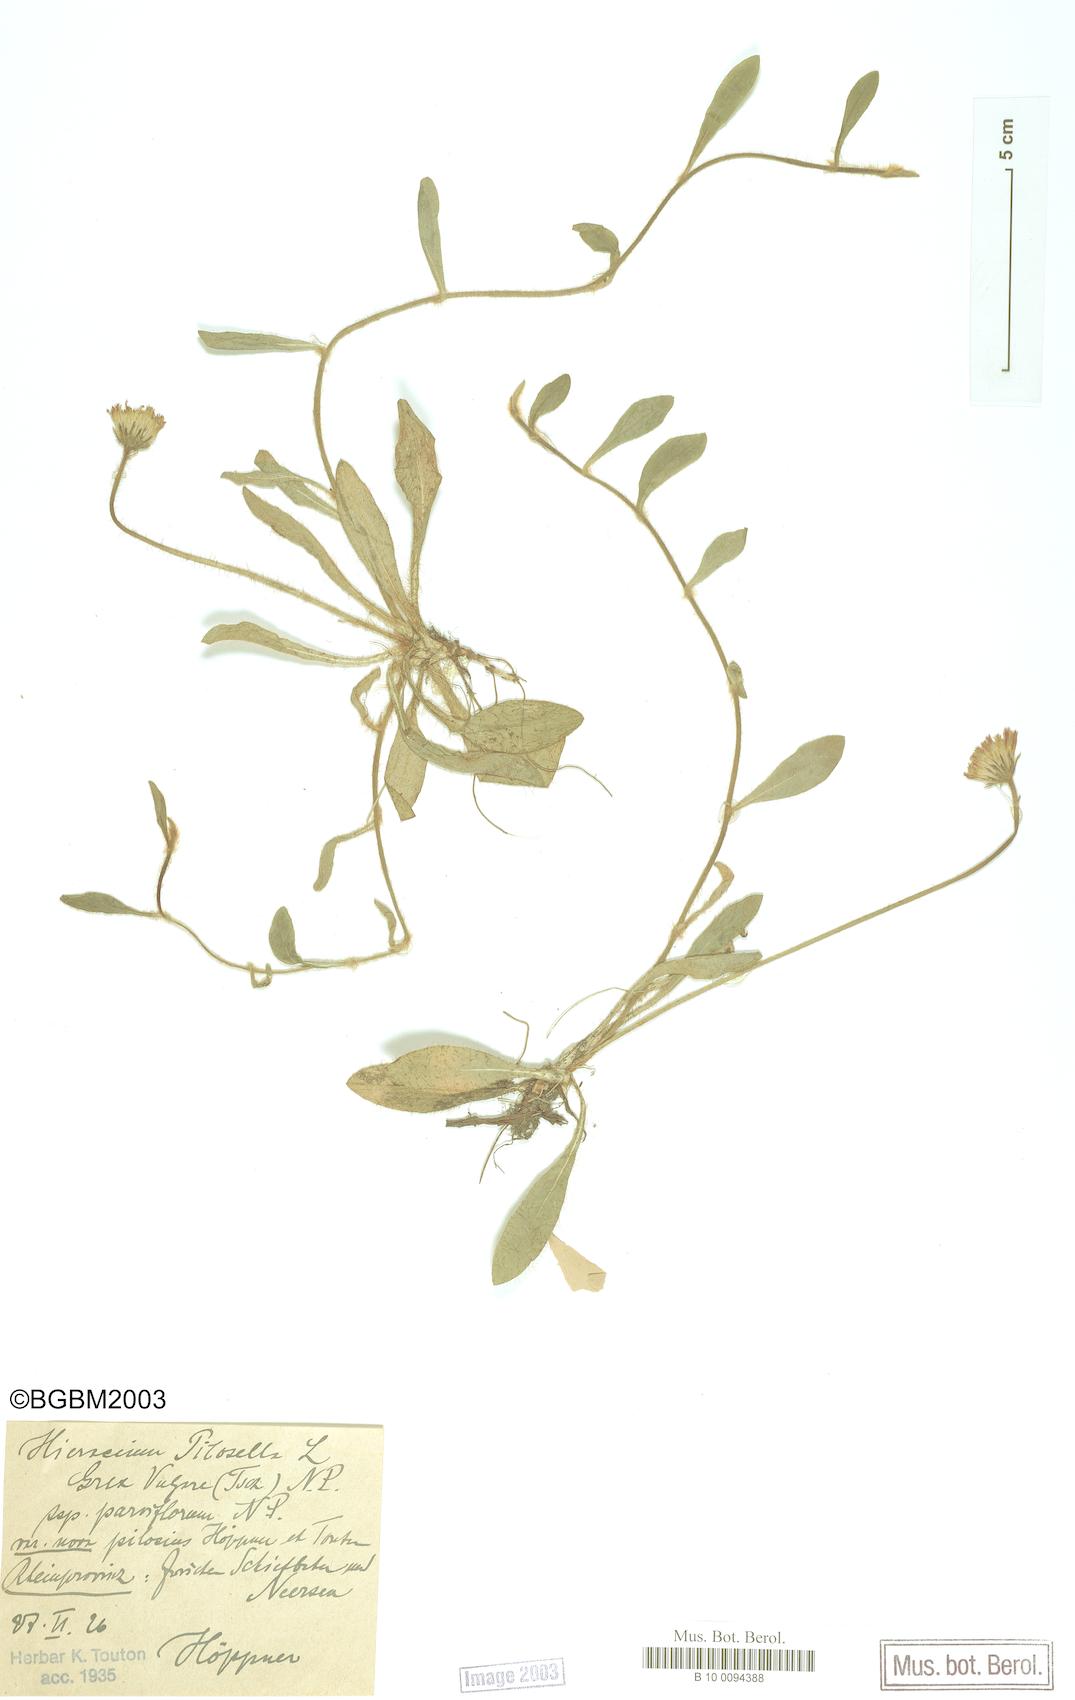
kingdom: Plantae
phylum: Tracheophyta
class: Magnoliopsida
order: Asterales
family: Asteraceae
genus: Pilosella
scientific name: Pilosella officinarum
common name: Mouse-ear hawkweed
